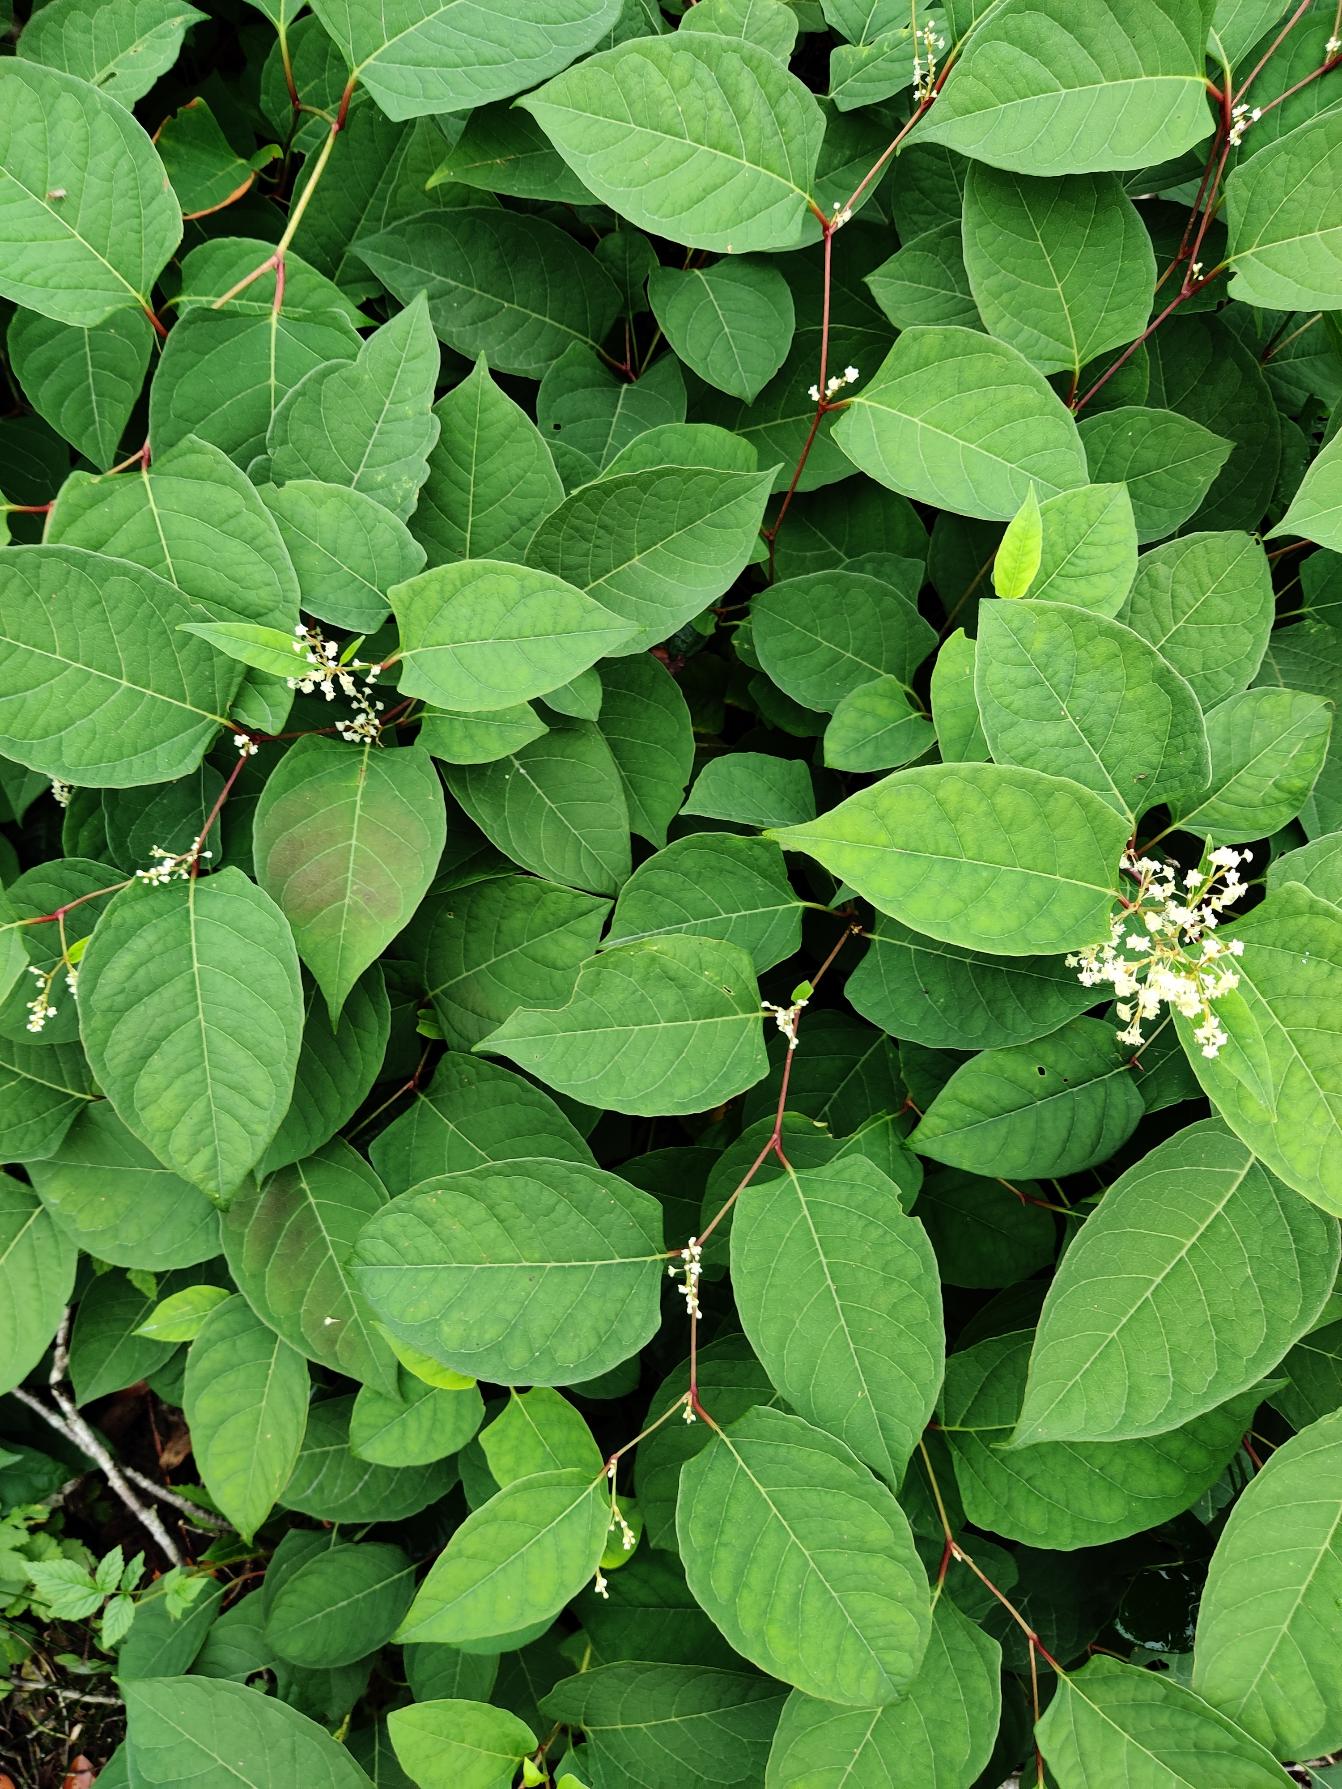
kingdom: Plantae
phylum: Tracheophyta
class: Magnoliopsida
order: Caryophyllales
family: Polygonaceae
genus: Reynoutria
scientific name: Reynoutria japonica
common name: Japan-pileurt
